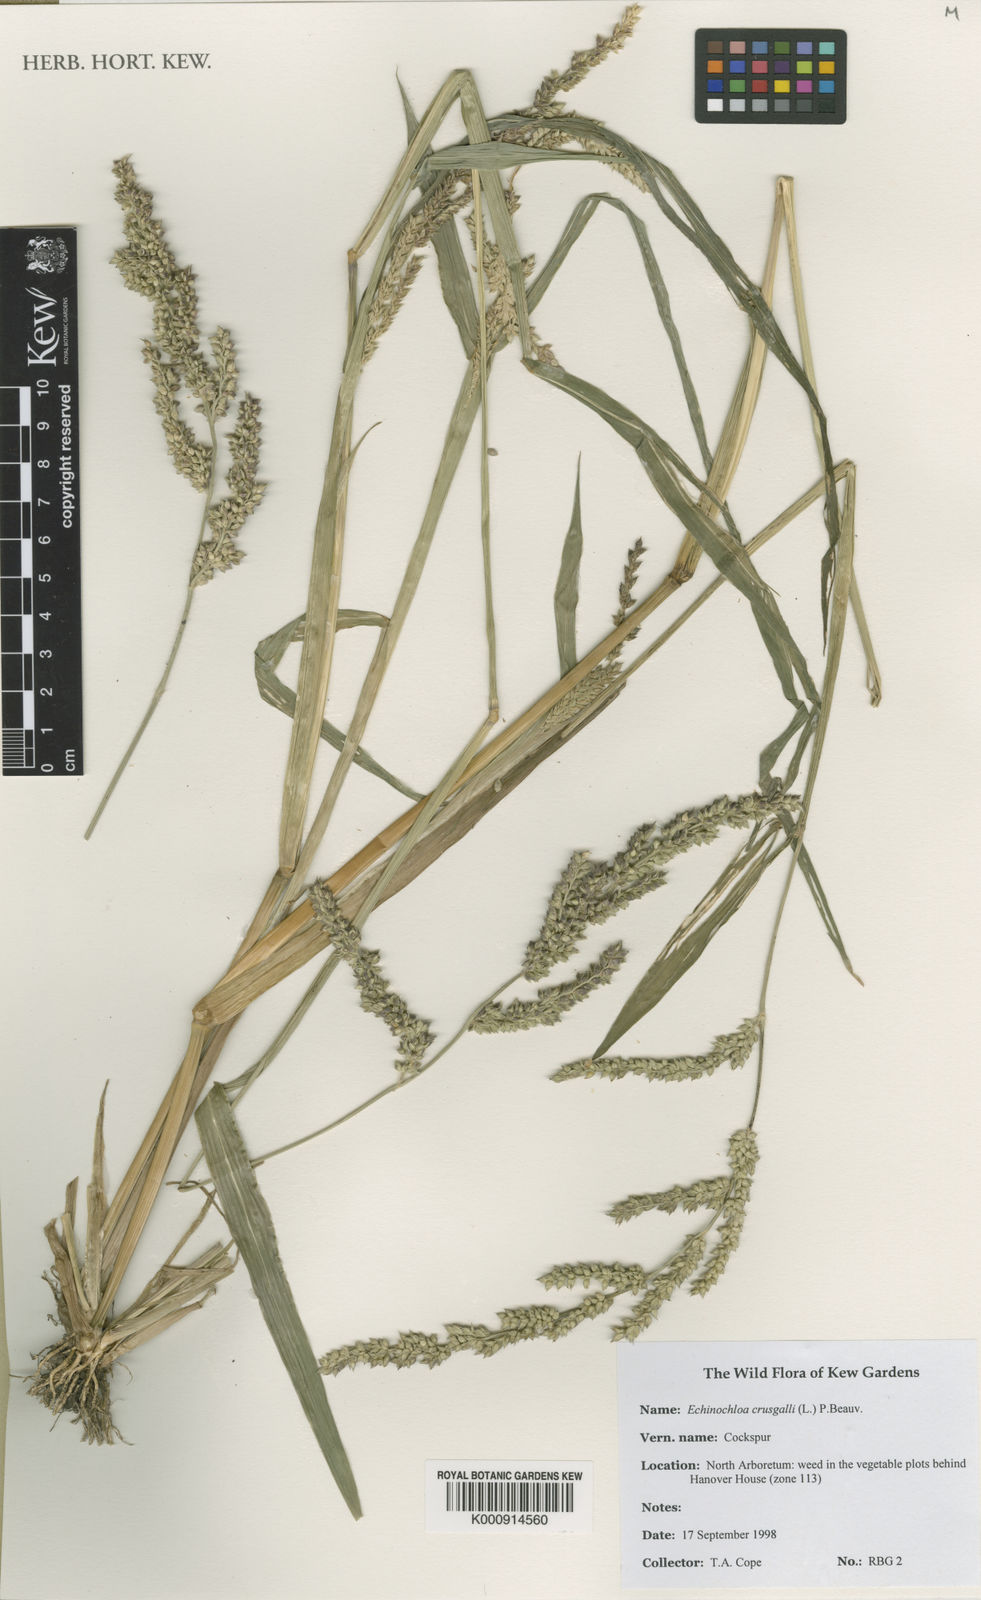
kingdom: Plantae
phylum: Tracheophyta
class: Liliopsida
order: Poales
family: Poaceae
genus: Echinochloa
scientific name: Echinochloa crus-galli
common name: Cockspur
